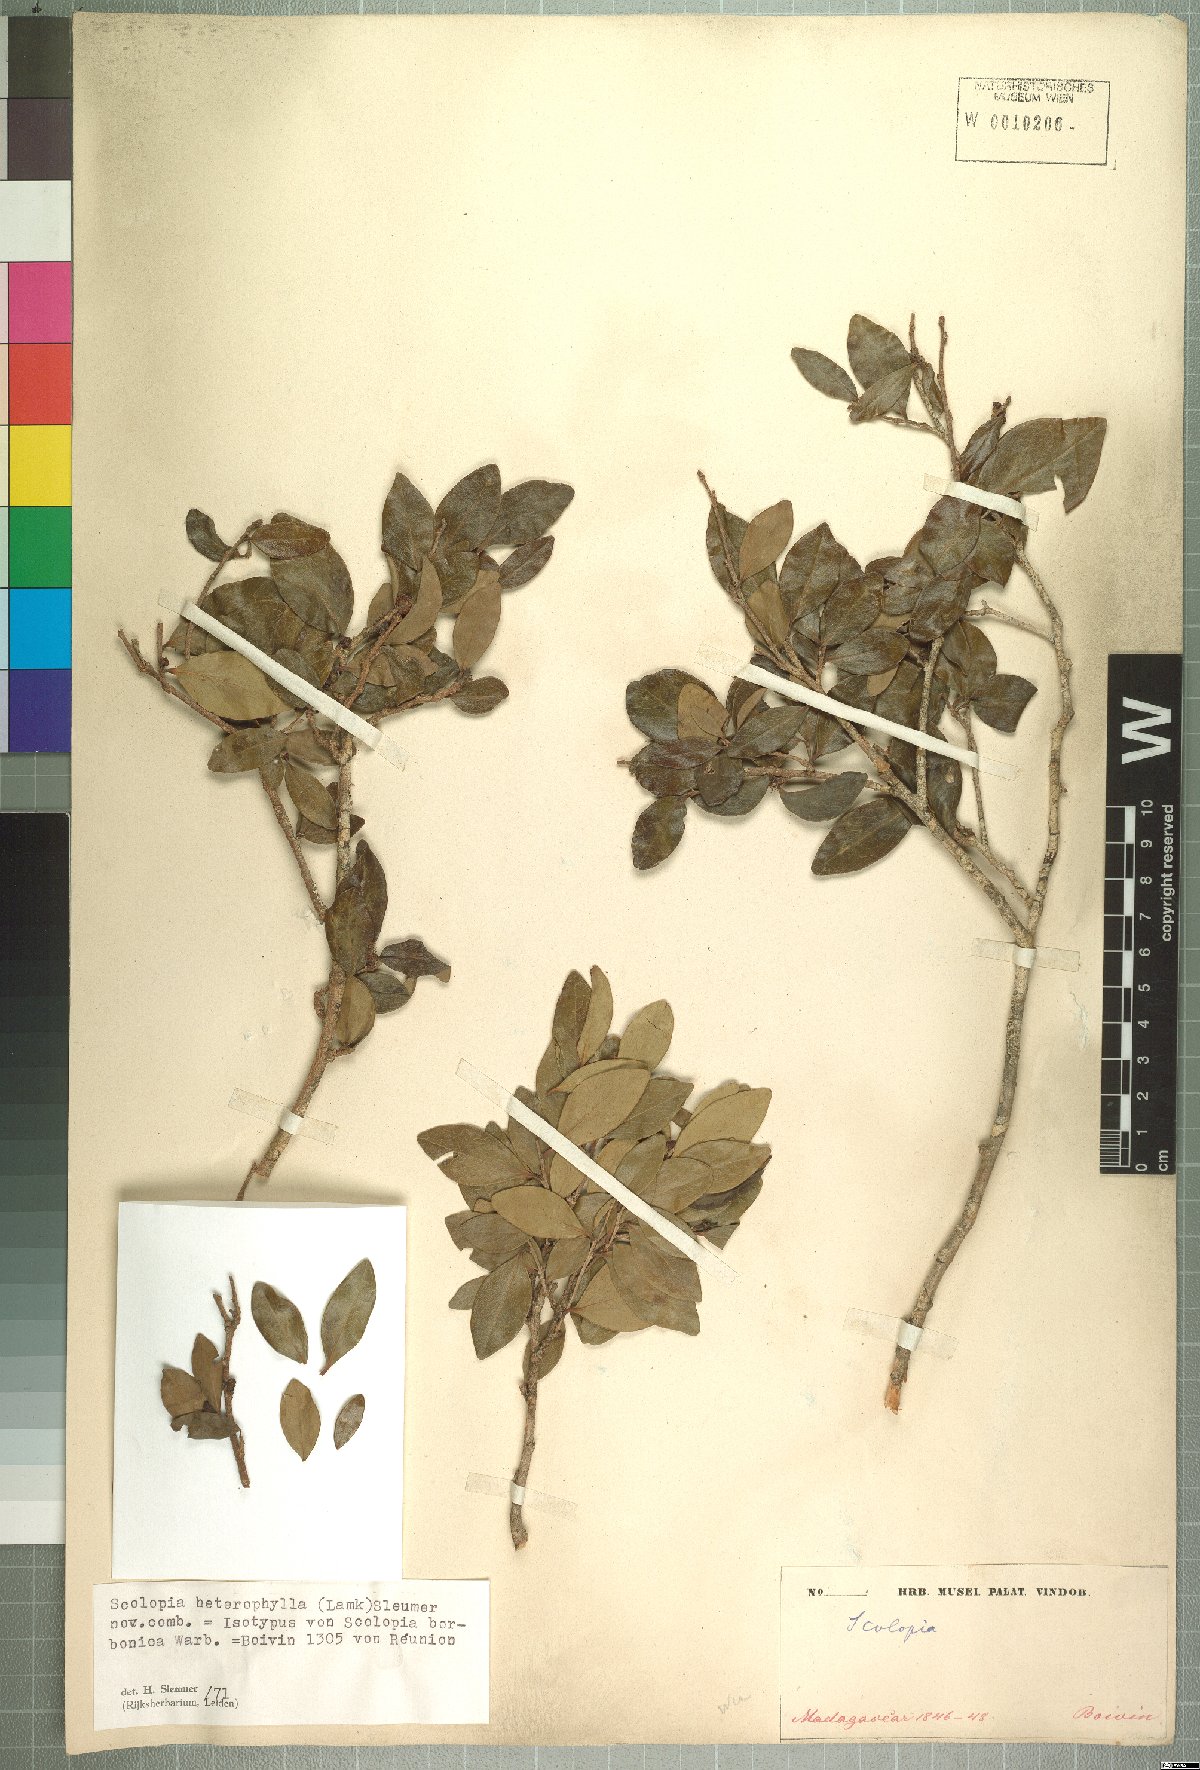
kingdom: Plantae
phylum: Tracheophyta
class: Magnoliopsida
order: Malpighiales
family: Salicaceae
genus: Scolopia
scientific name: Scolopia heterophylla
